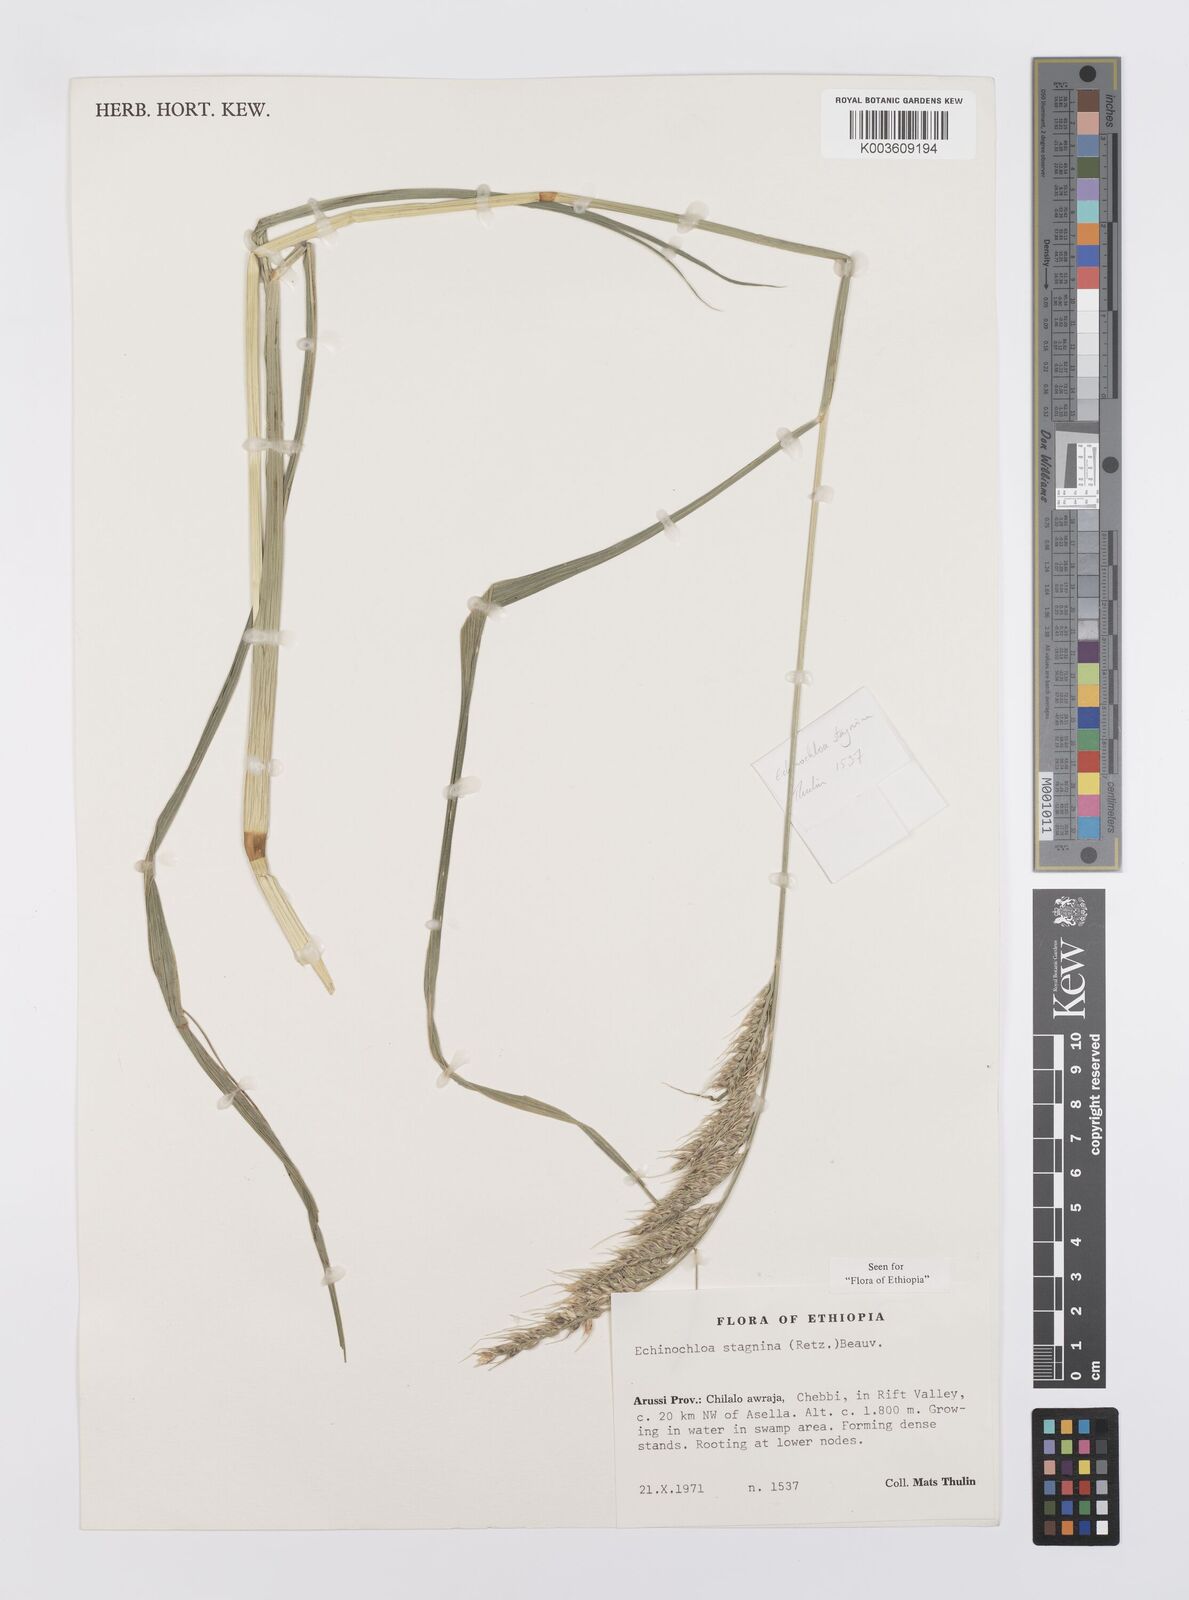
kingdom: Plantae
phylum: Tracheophyta
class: Liliopsida
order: Poales
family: Poaceae
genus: Echinochloa
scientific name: Echinochloa stagnina
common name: Burgu grass
